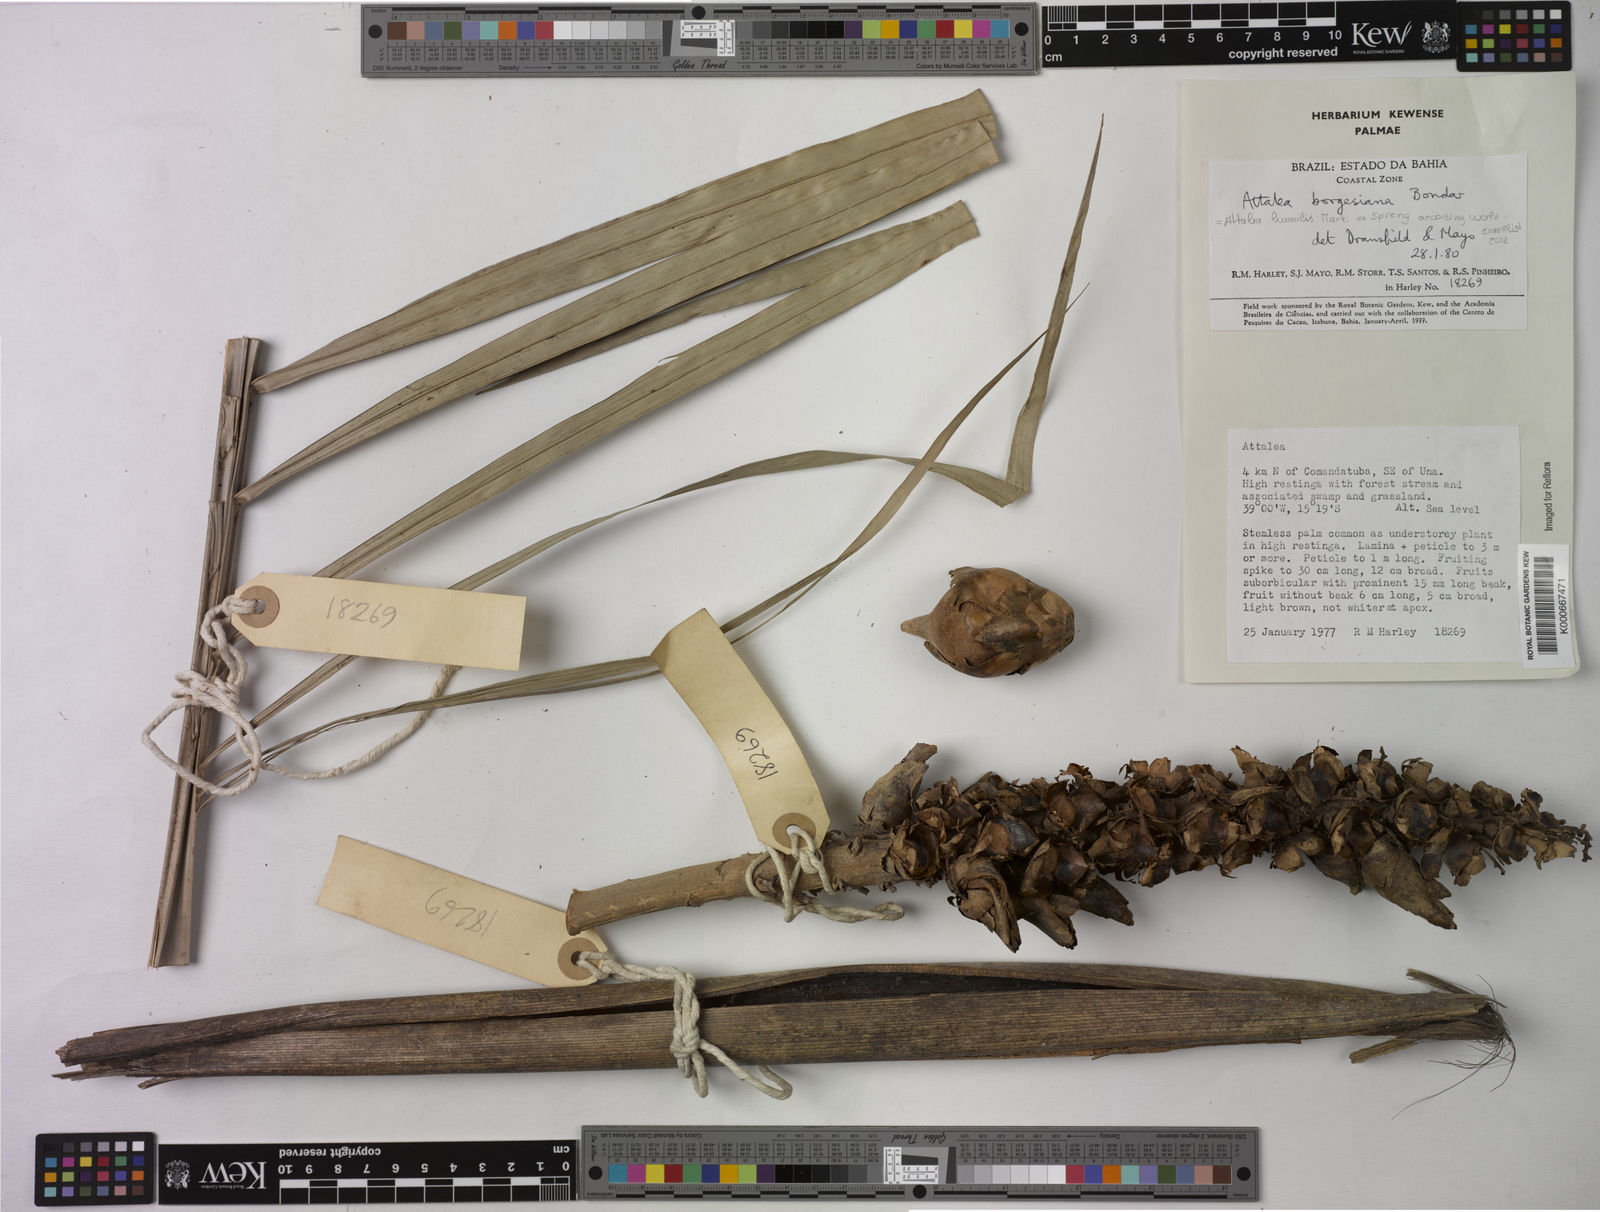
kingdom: Plantae
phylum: Tracheophyta
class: Liliopsida
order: Arecales
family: Arecaceae
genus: Attalea
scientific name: Attalea humilis
